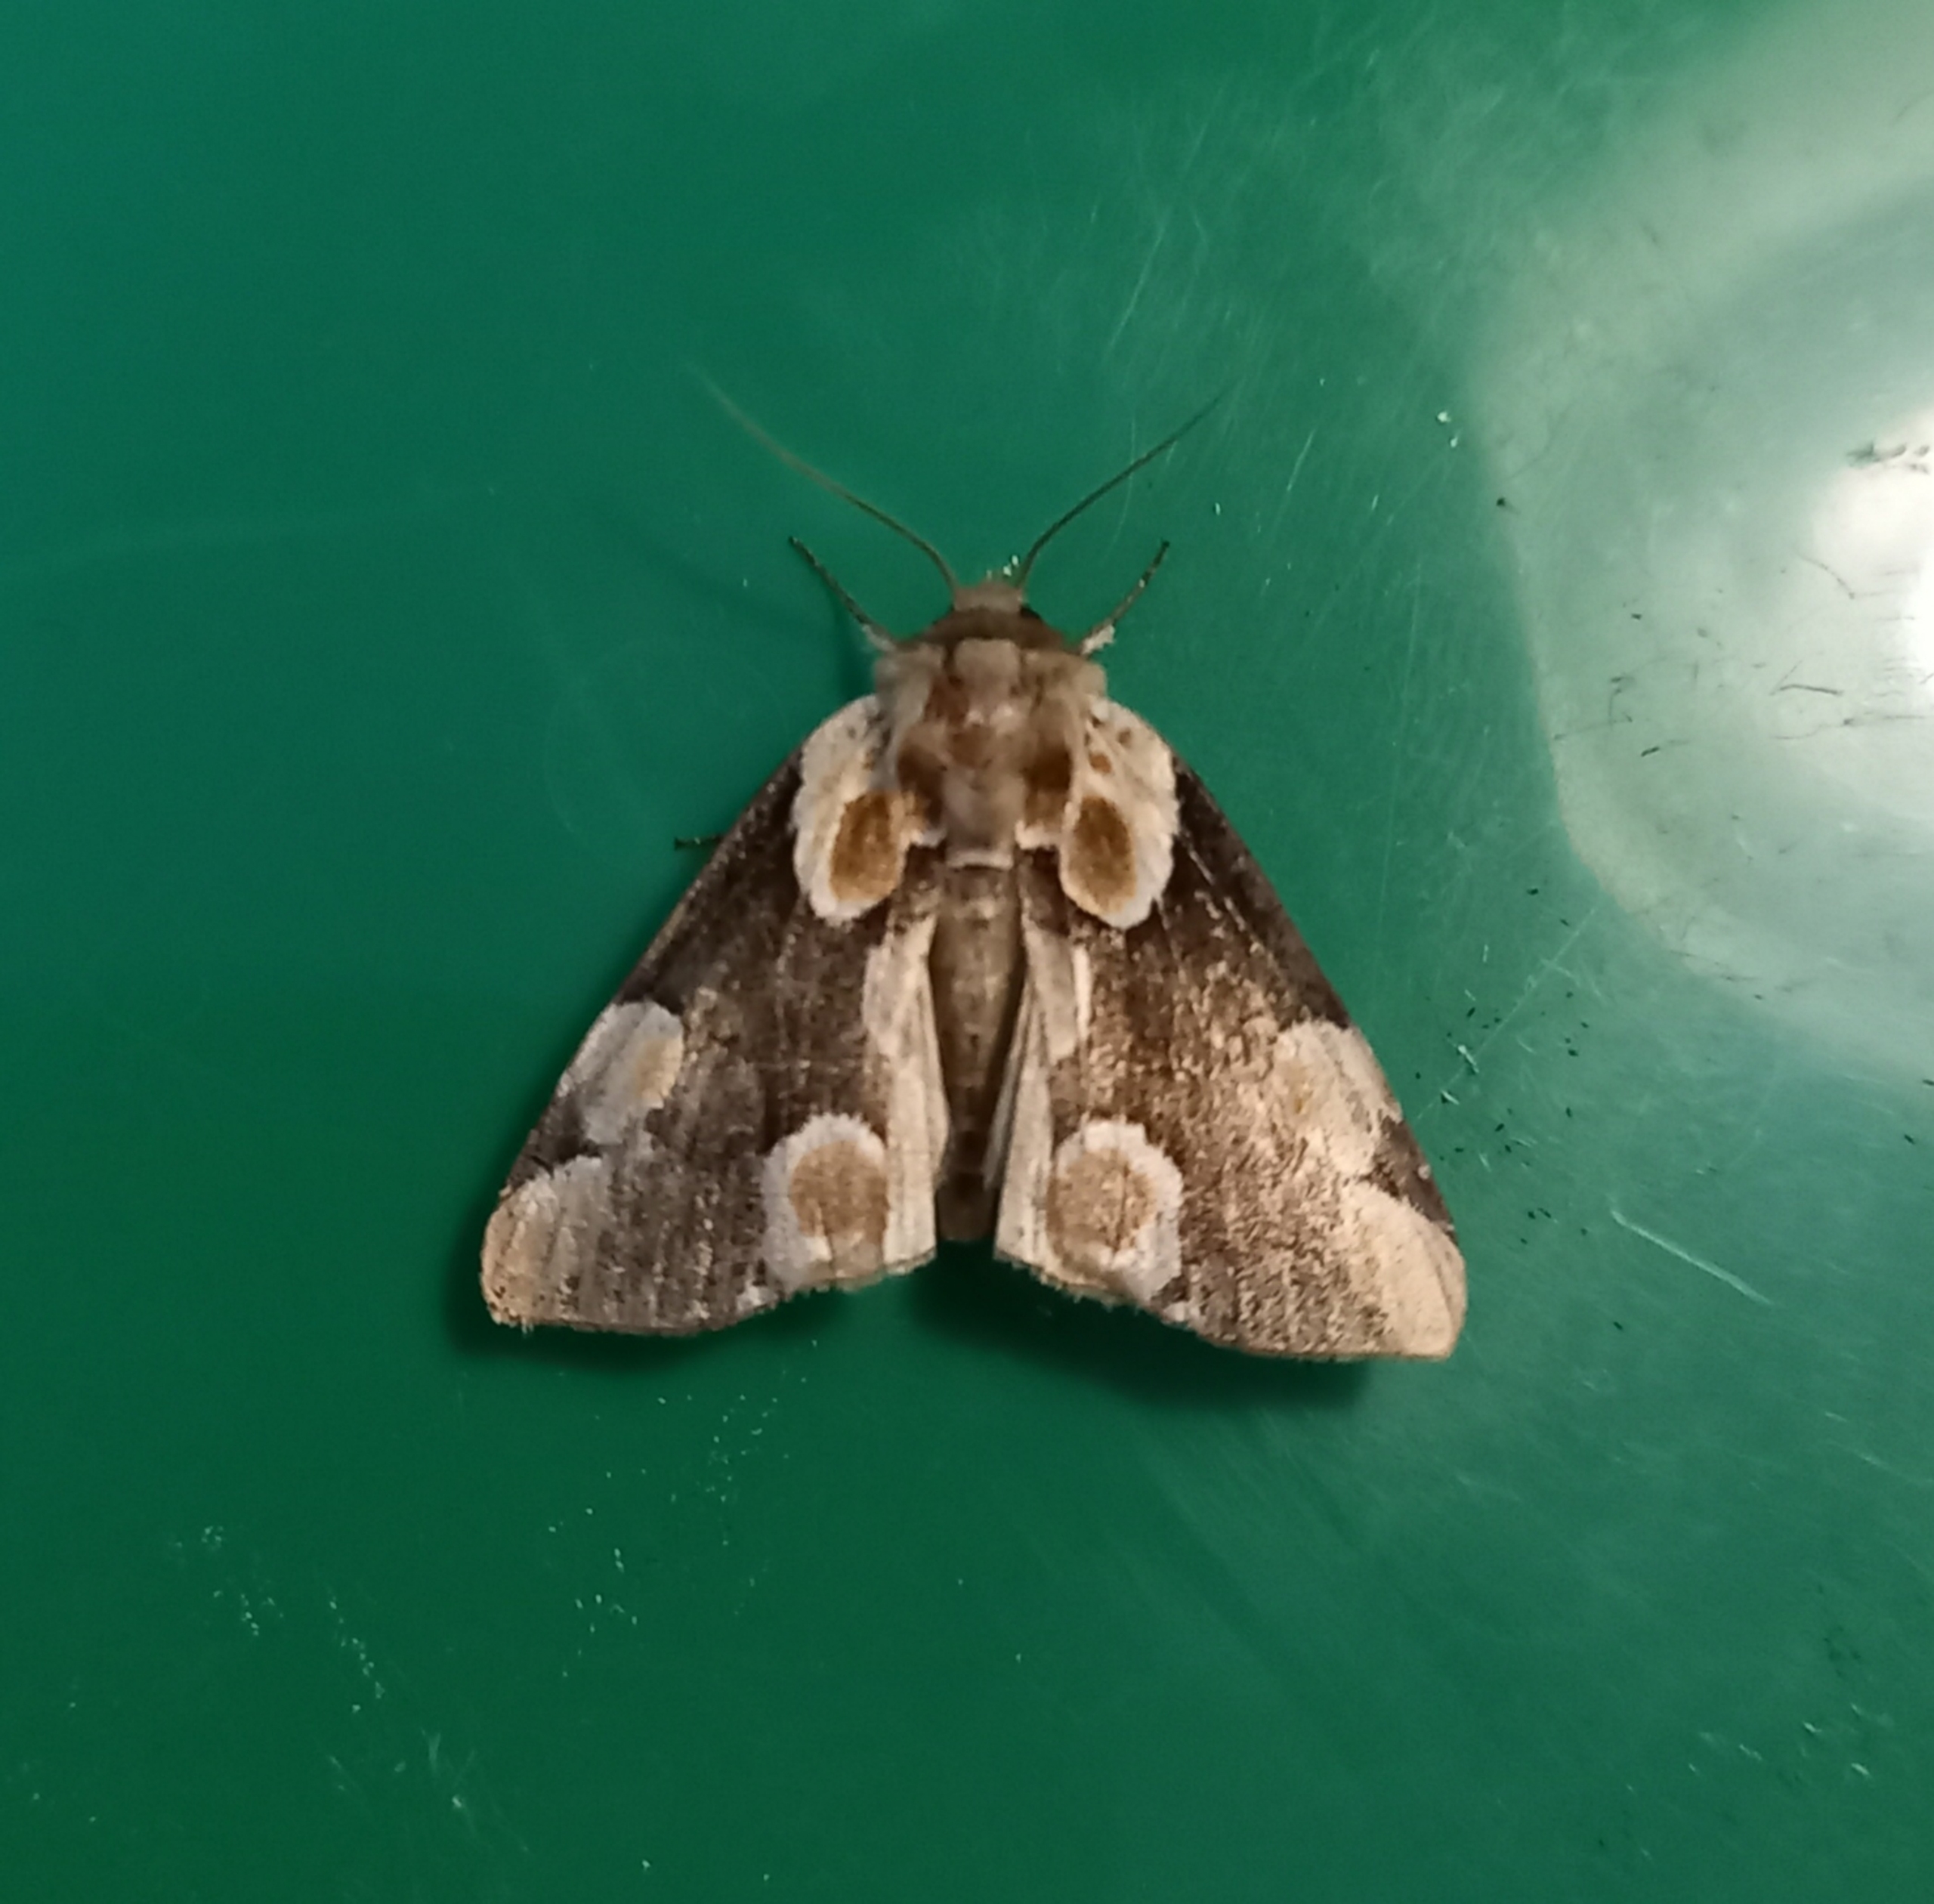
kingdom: Animalia
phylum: Arthropoda
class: Insecta
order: Lepidoptera
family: Drepanidae
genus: Thyatira
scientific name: Thyatira batis
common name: Rosenplet
